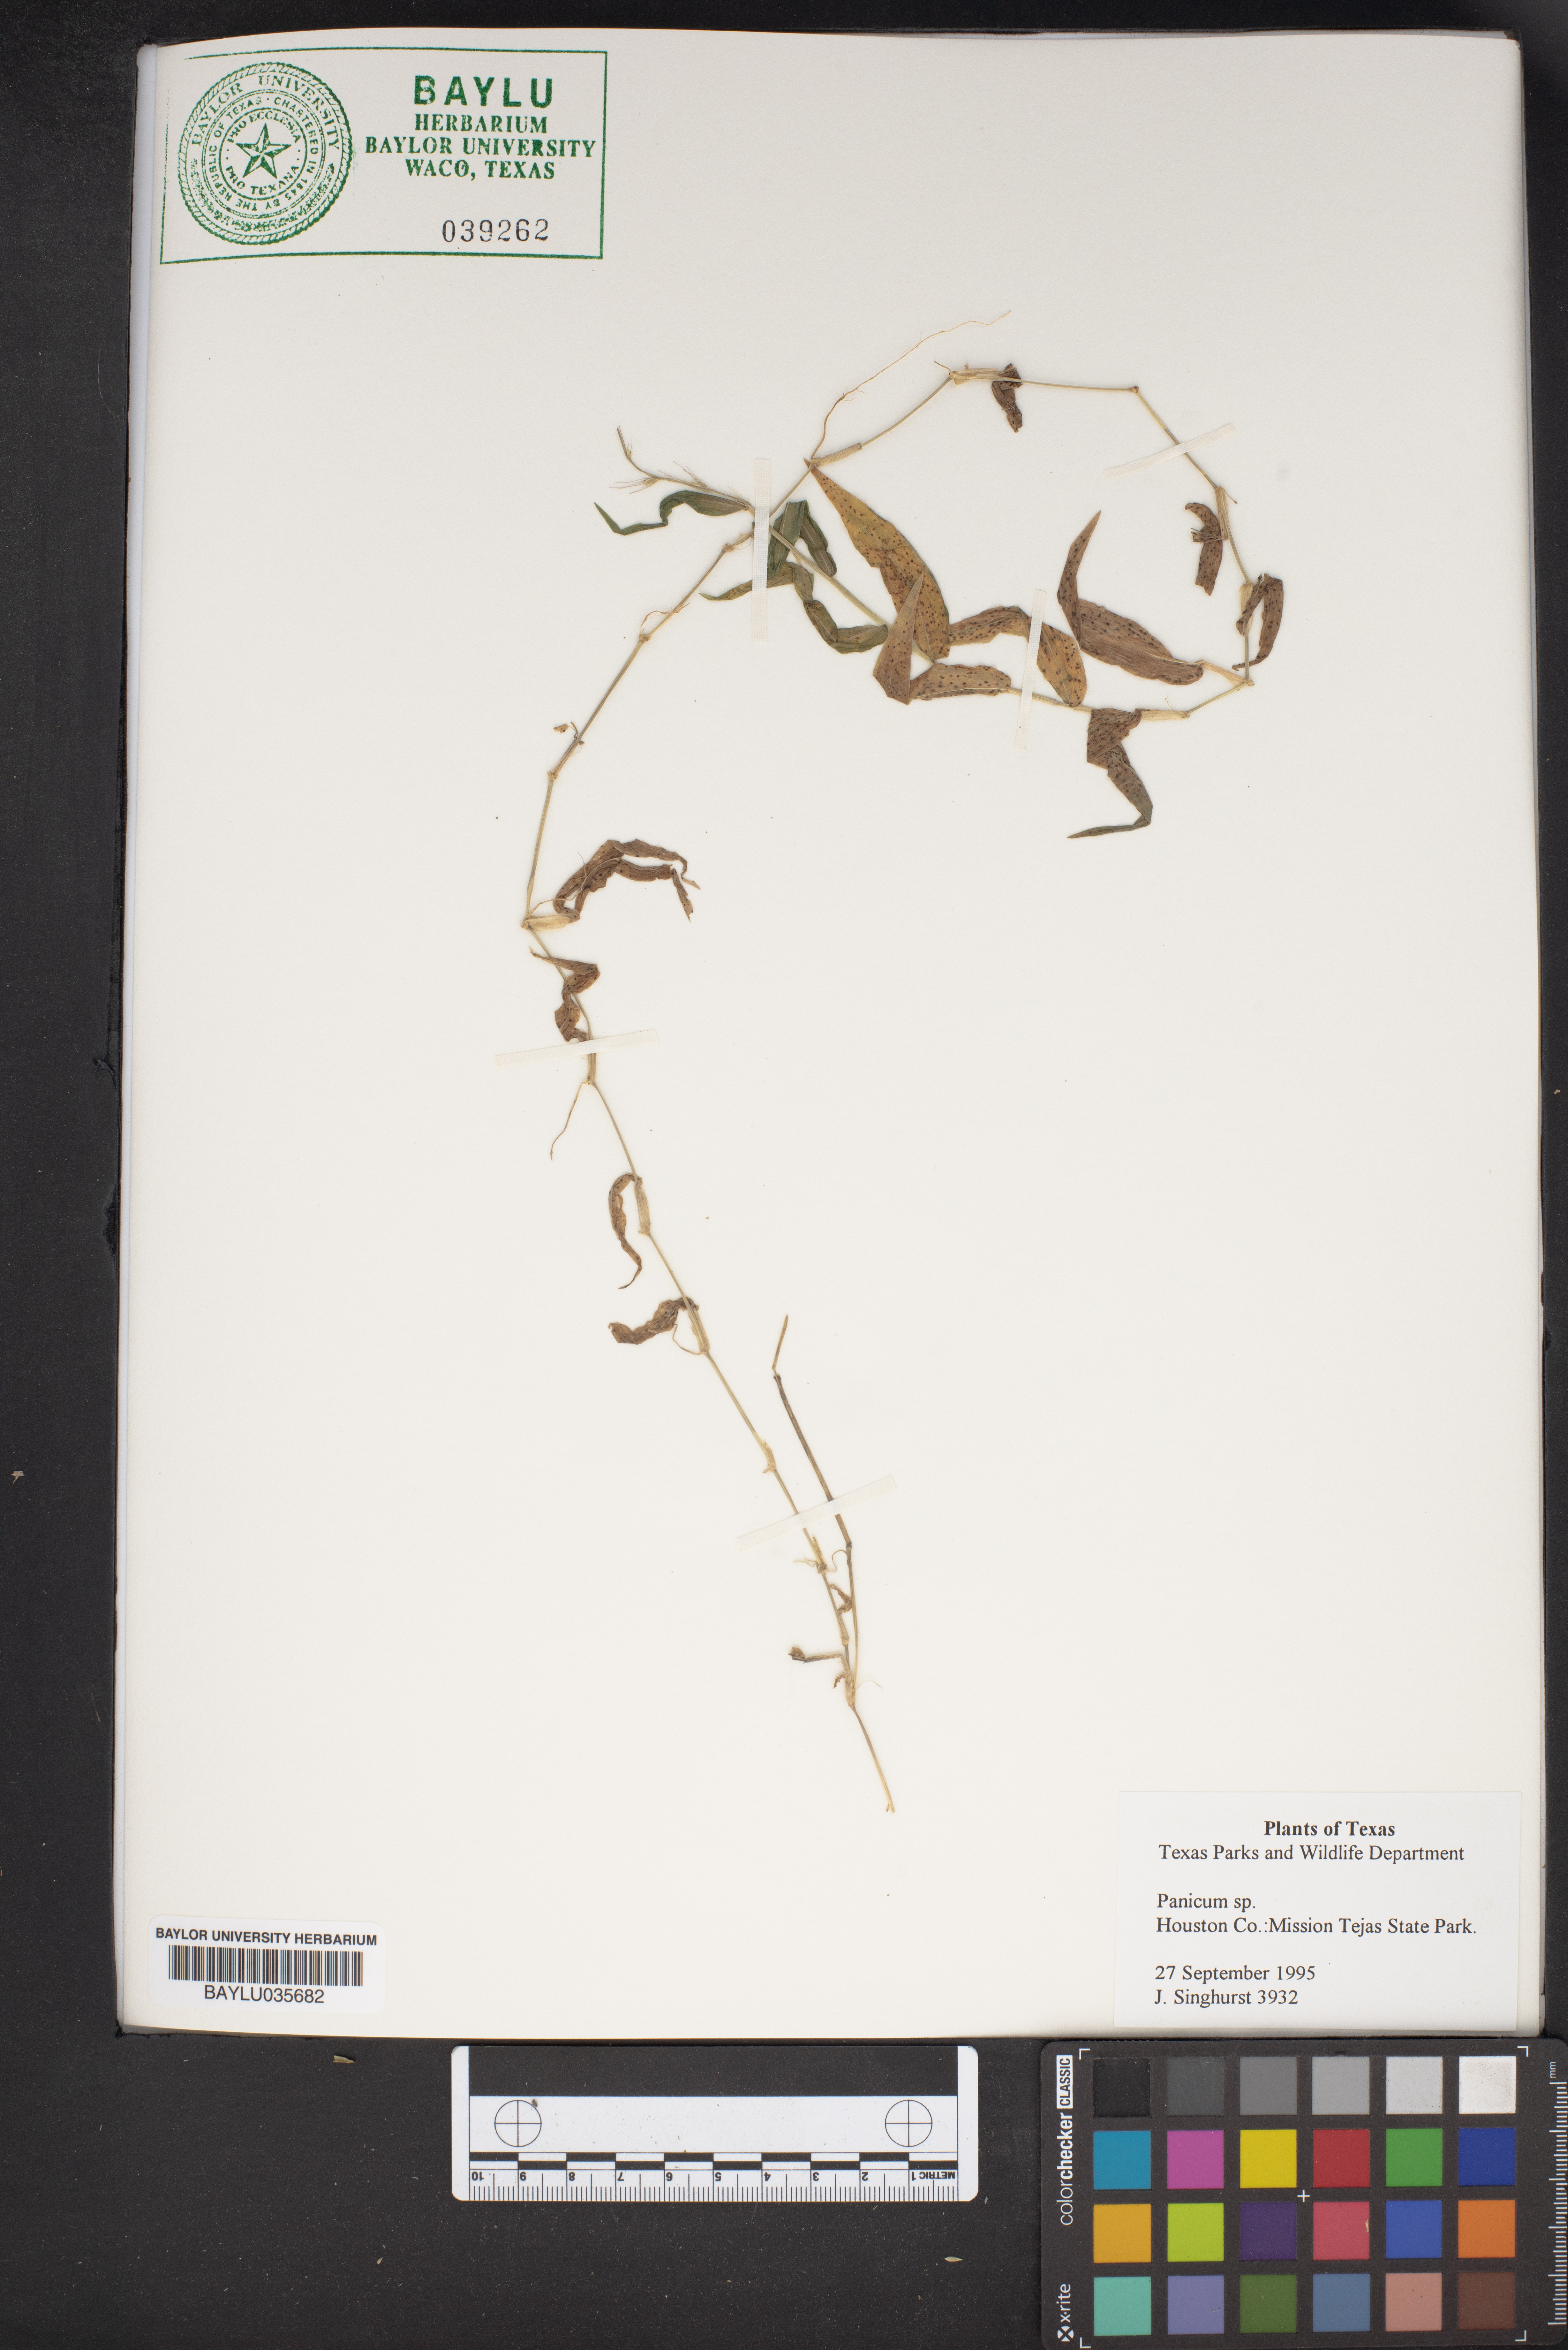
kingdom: Plantae
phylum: Tracheophyta
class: Liliopsida
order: Poales
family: Poaceae
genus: Panicum
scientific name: Panicum
